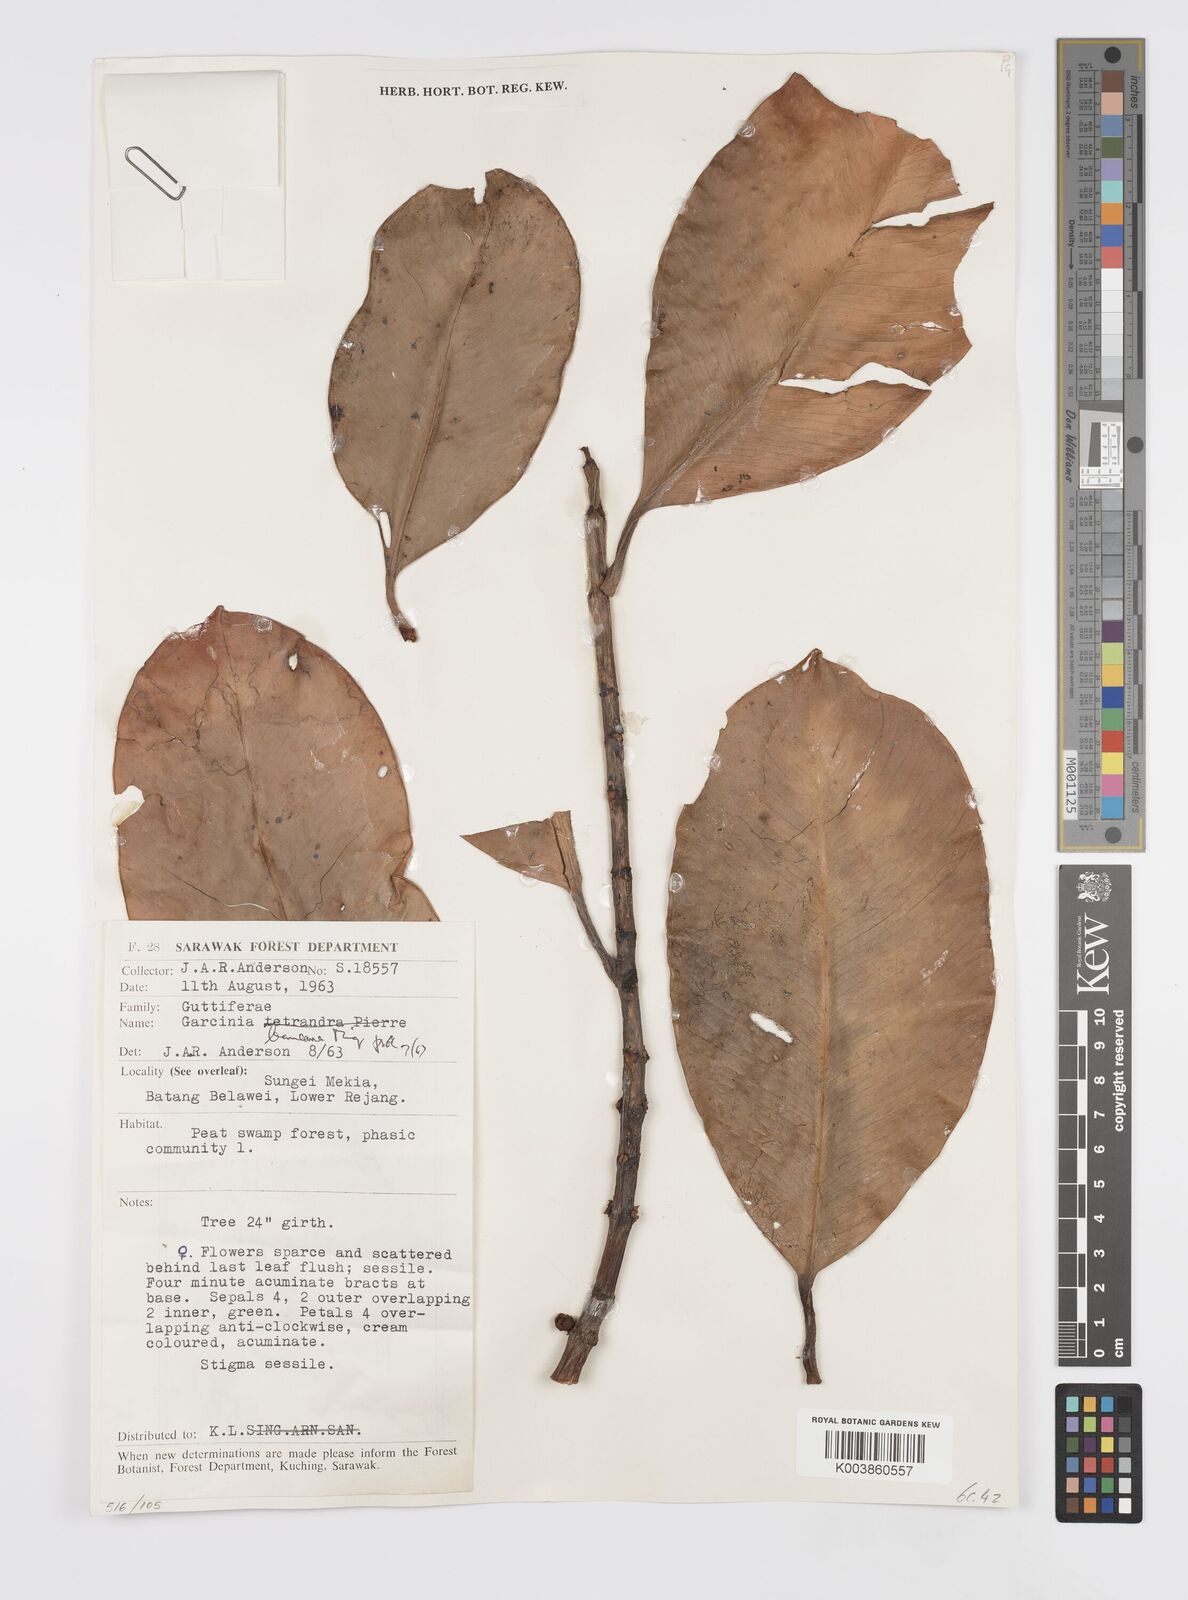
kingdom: Plantae
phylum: Tracheophyta
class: Magnoliopsida
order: Malpighiales
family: Clusiaceae
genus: Garcinia
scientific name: Garcinia bancana
